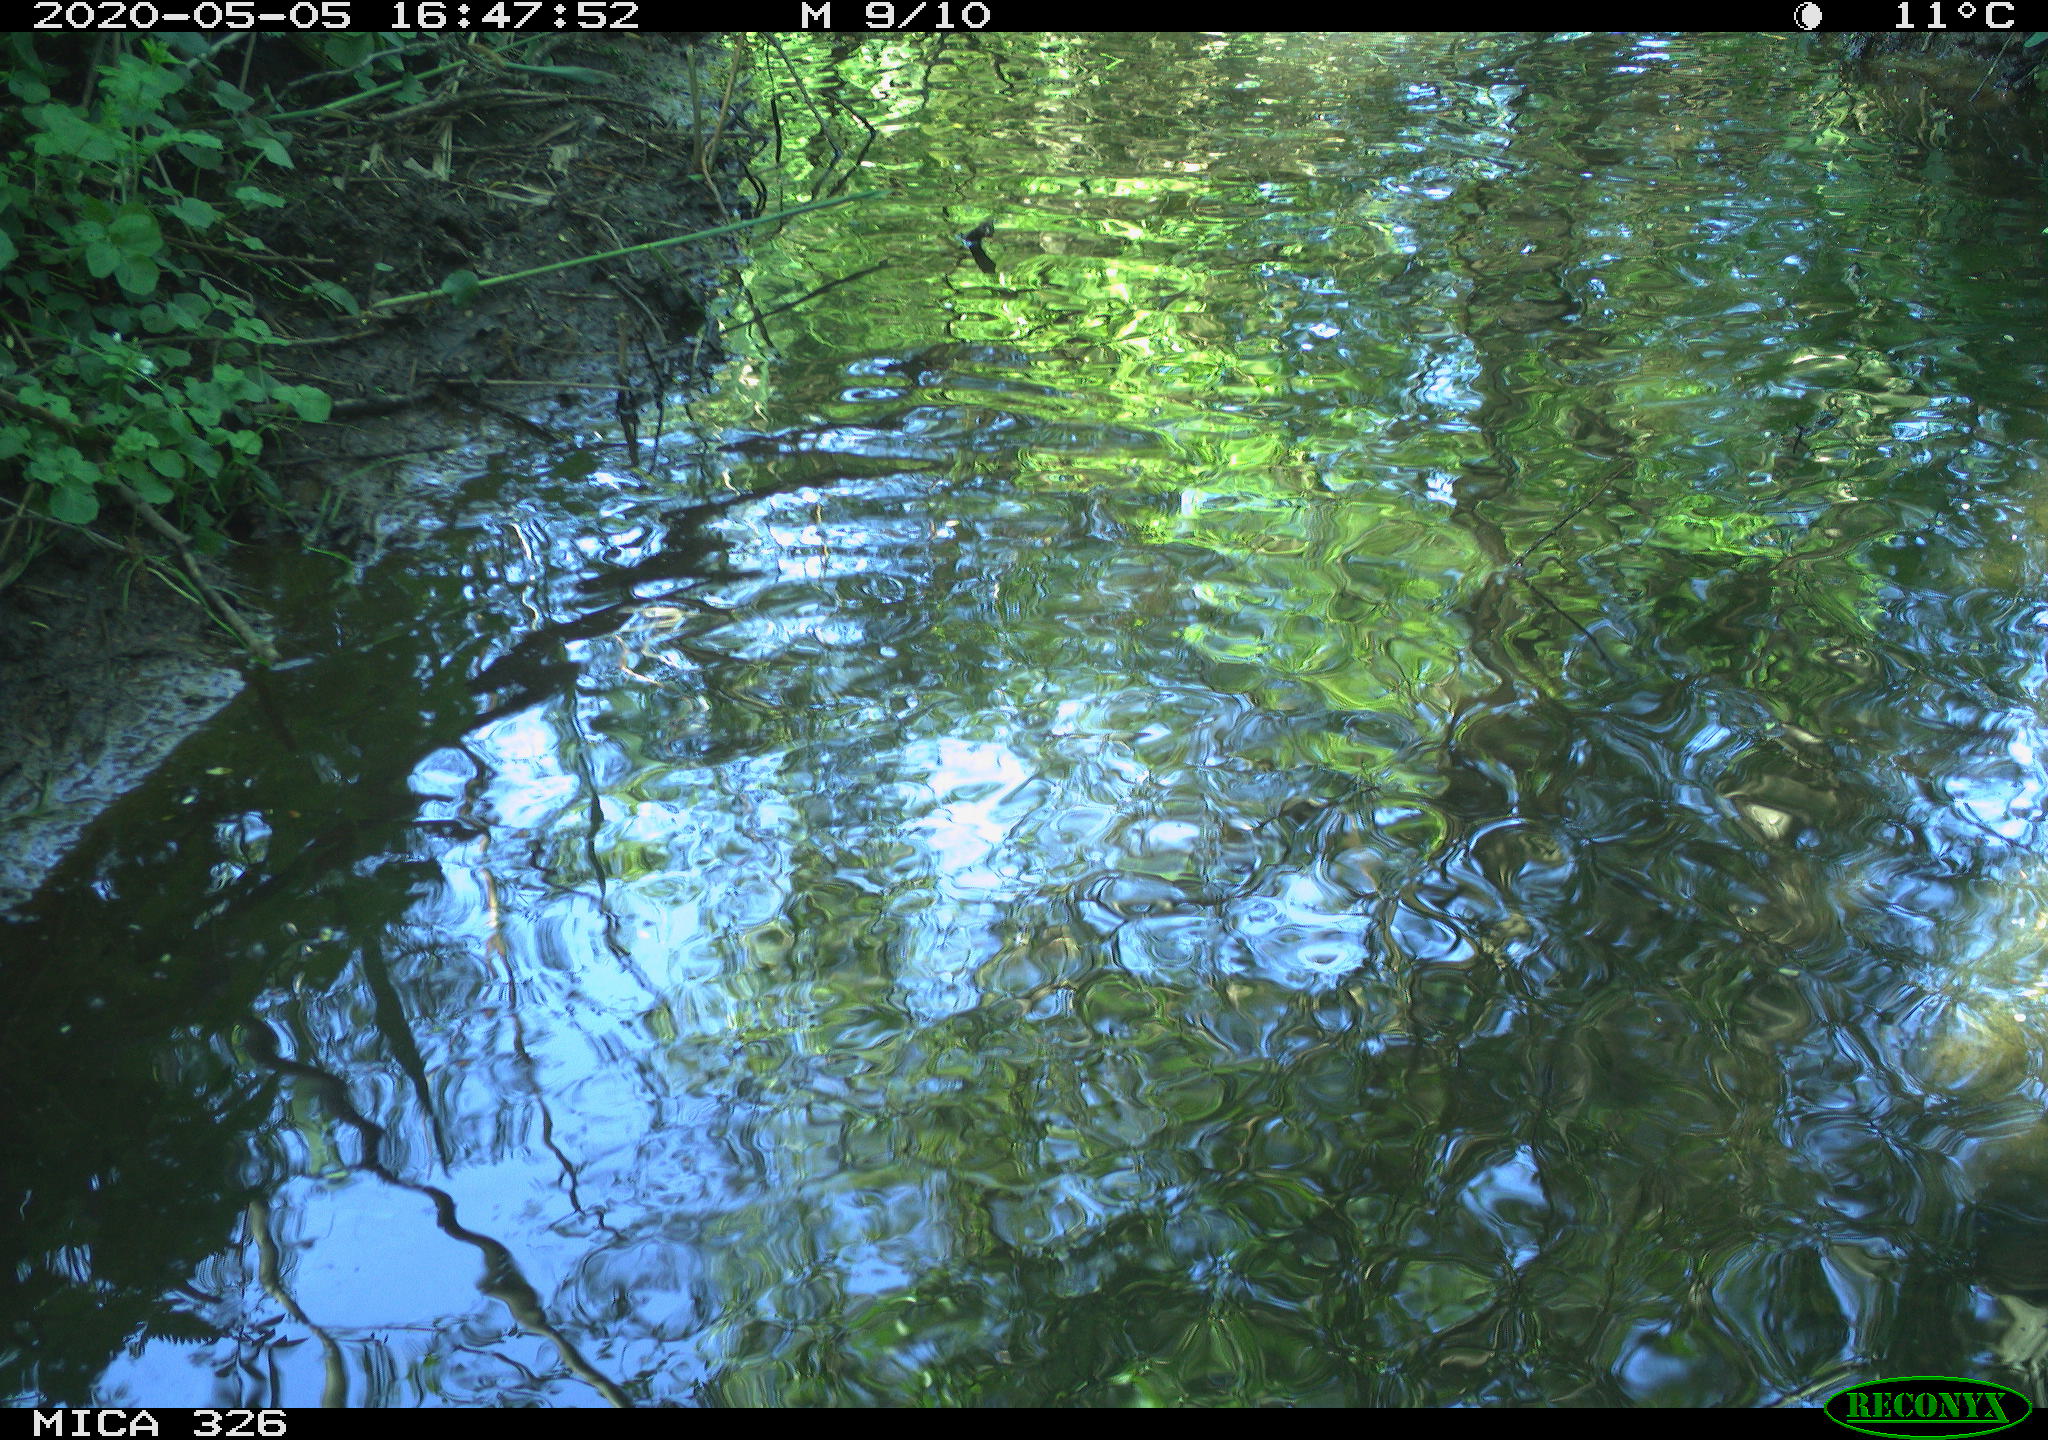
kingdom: Animalia
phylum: Chordata
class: Mammalia
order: Rodentia
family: Myocastoridae
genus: Myocastor
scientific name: Myocastor coypus
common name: Coypu
